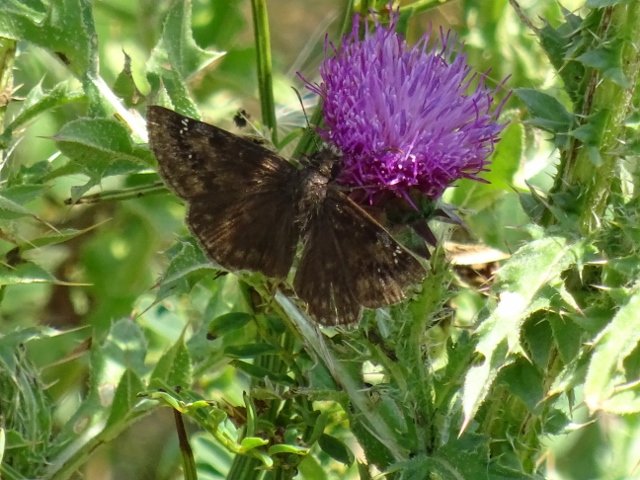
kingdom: Animalia
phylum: Arthropoda
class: Insecta
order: Lepidoptera
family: Hesperiidae
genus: Gesta
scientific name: Gesta
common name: Wild Indigo Duskywing
